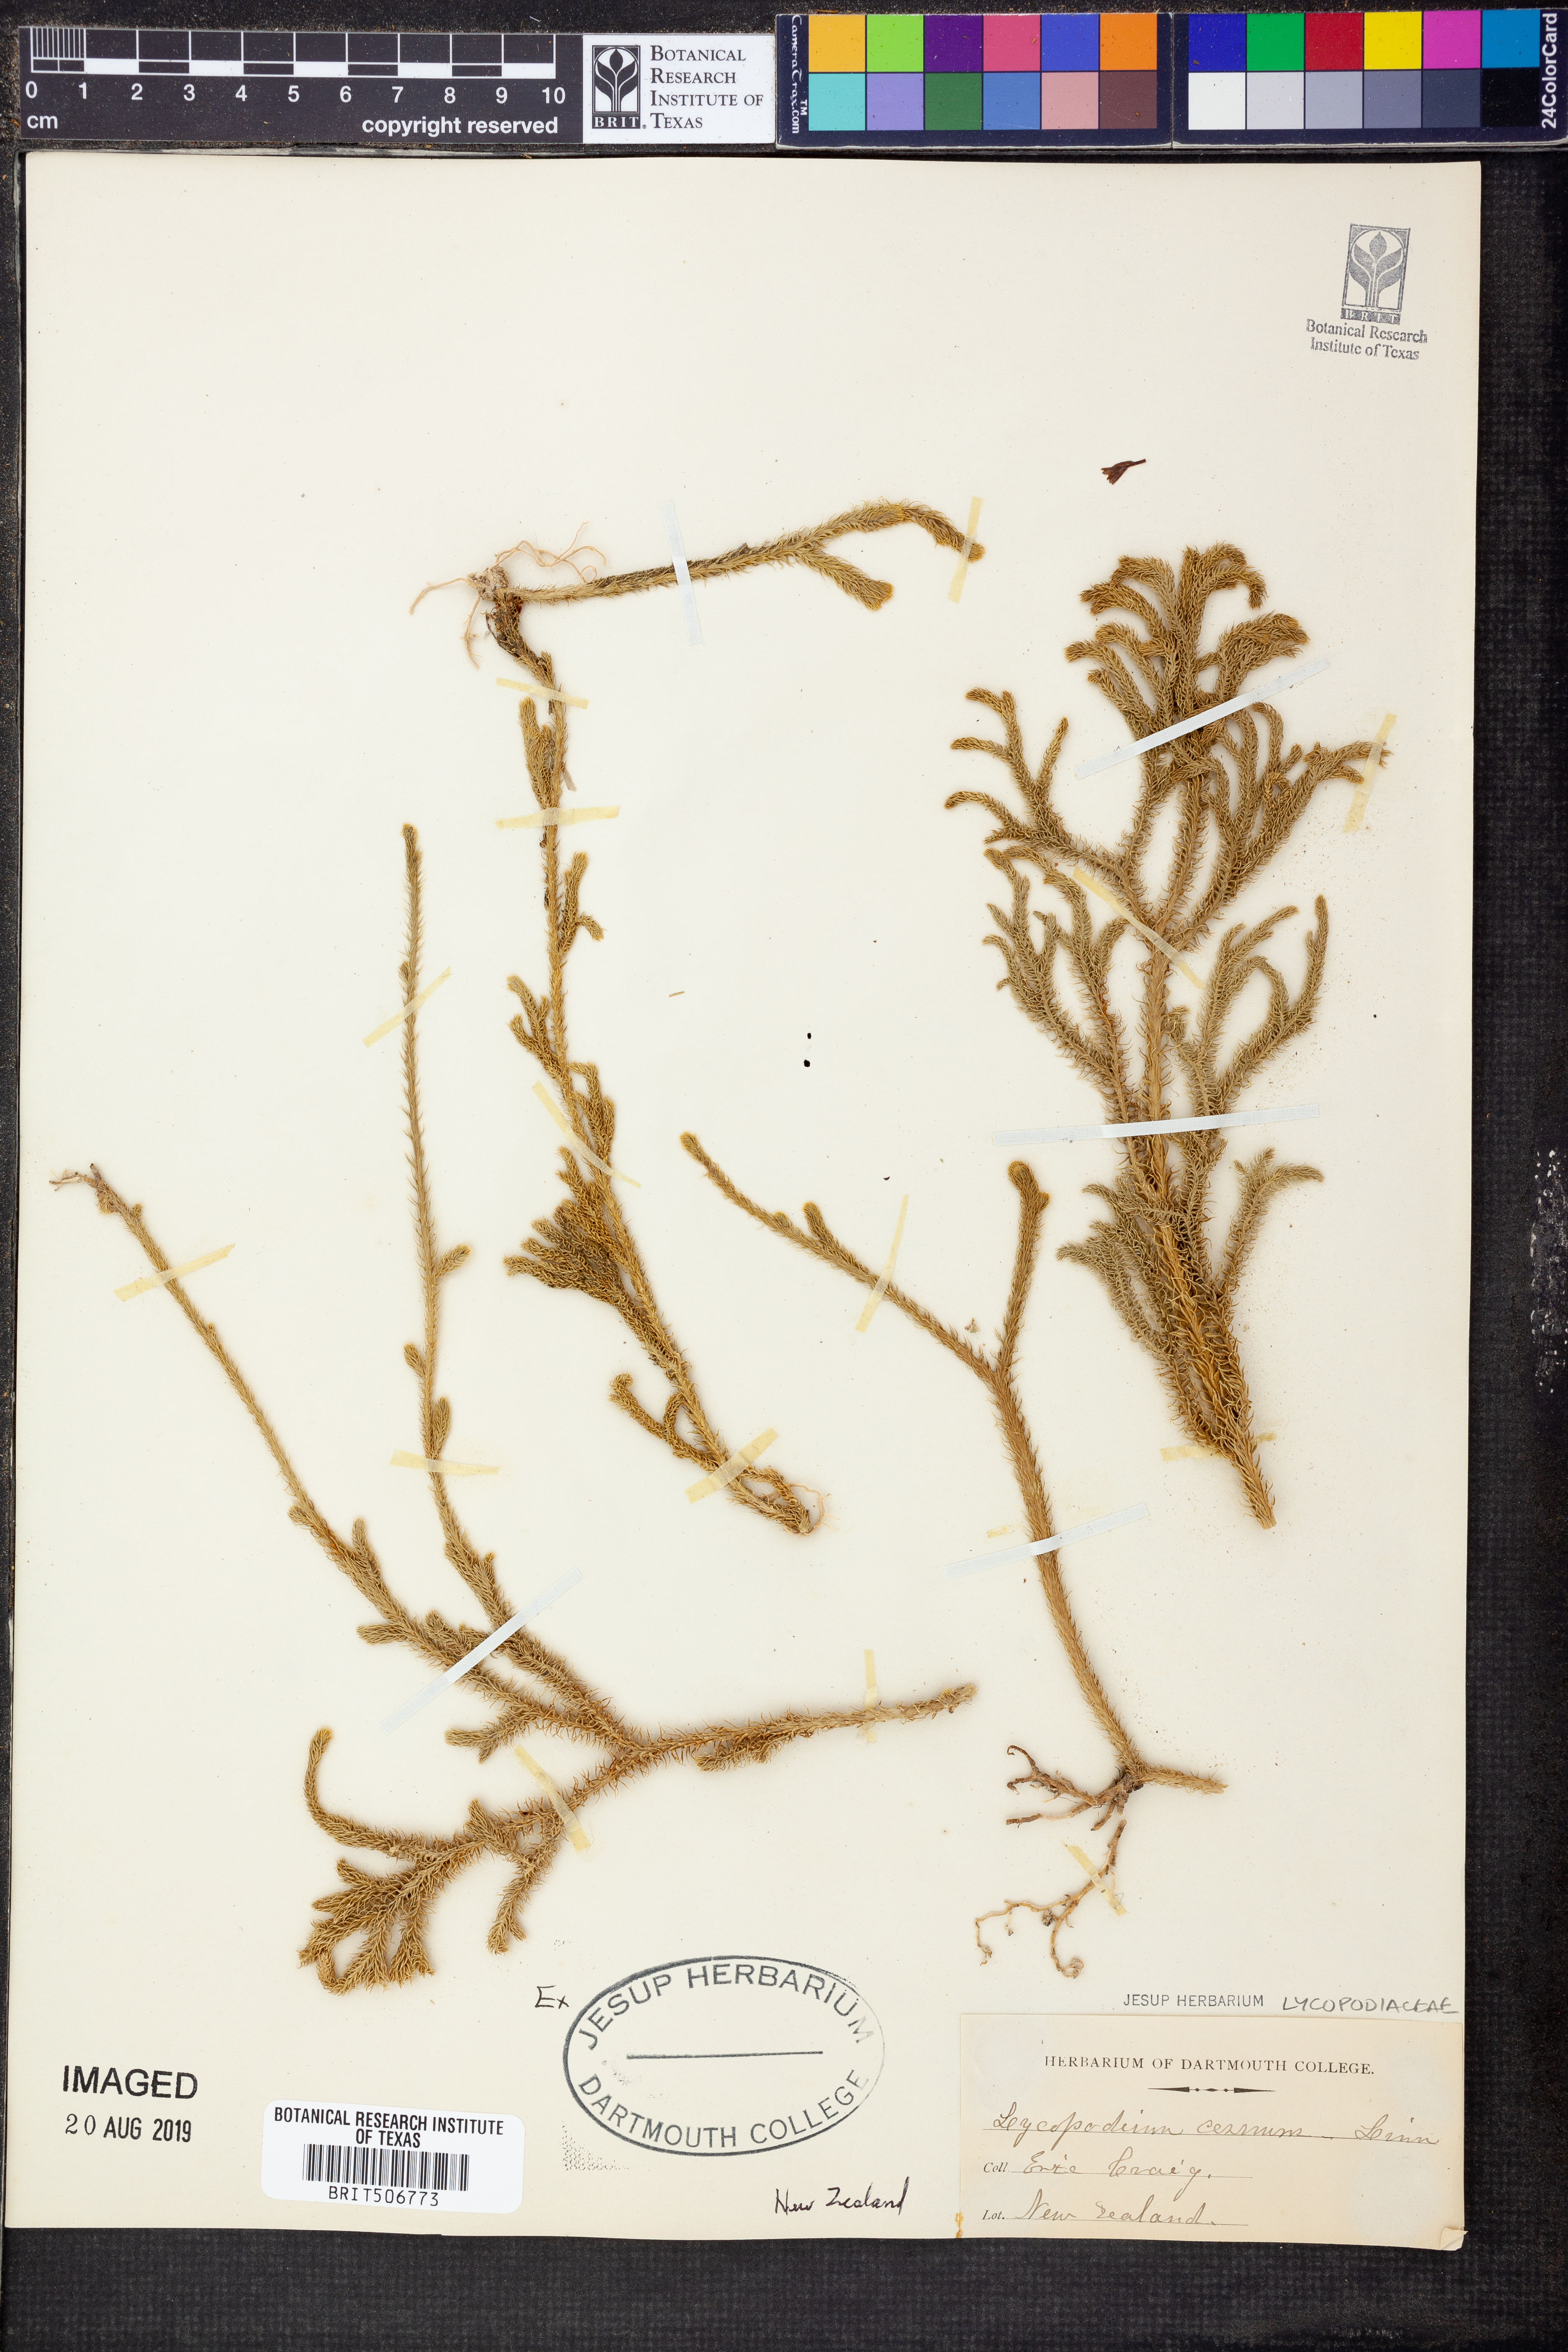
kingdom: Plantae
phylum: Tracheophyta
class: Lycopodiopsida
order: Lycopodiales
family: Lycopodiaceae
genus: Palhinhaea
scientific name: Palhinhaea cernua
